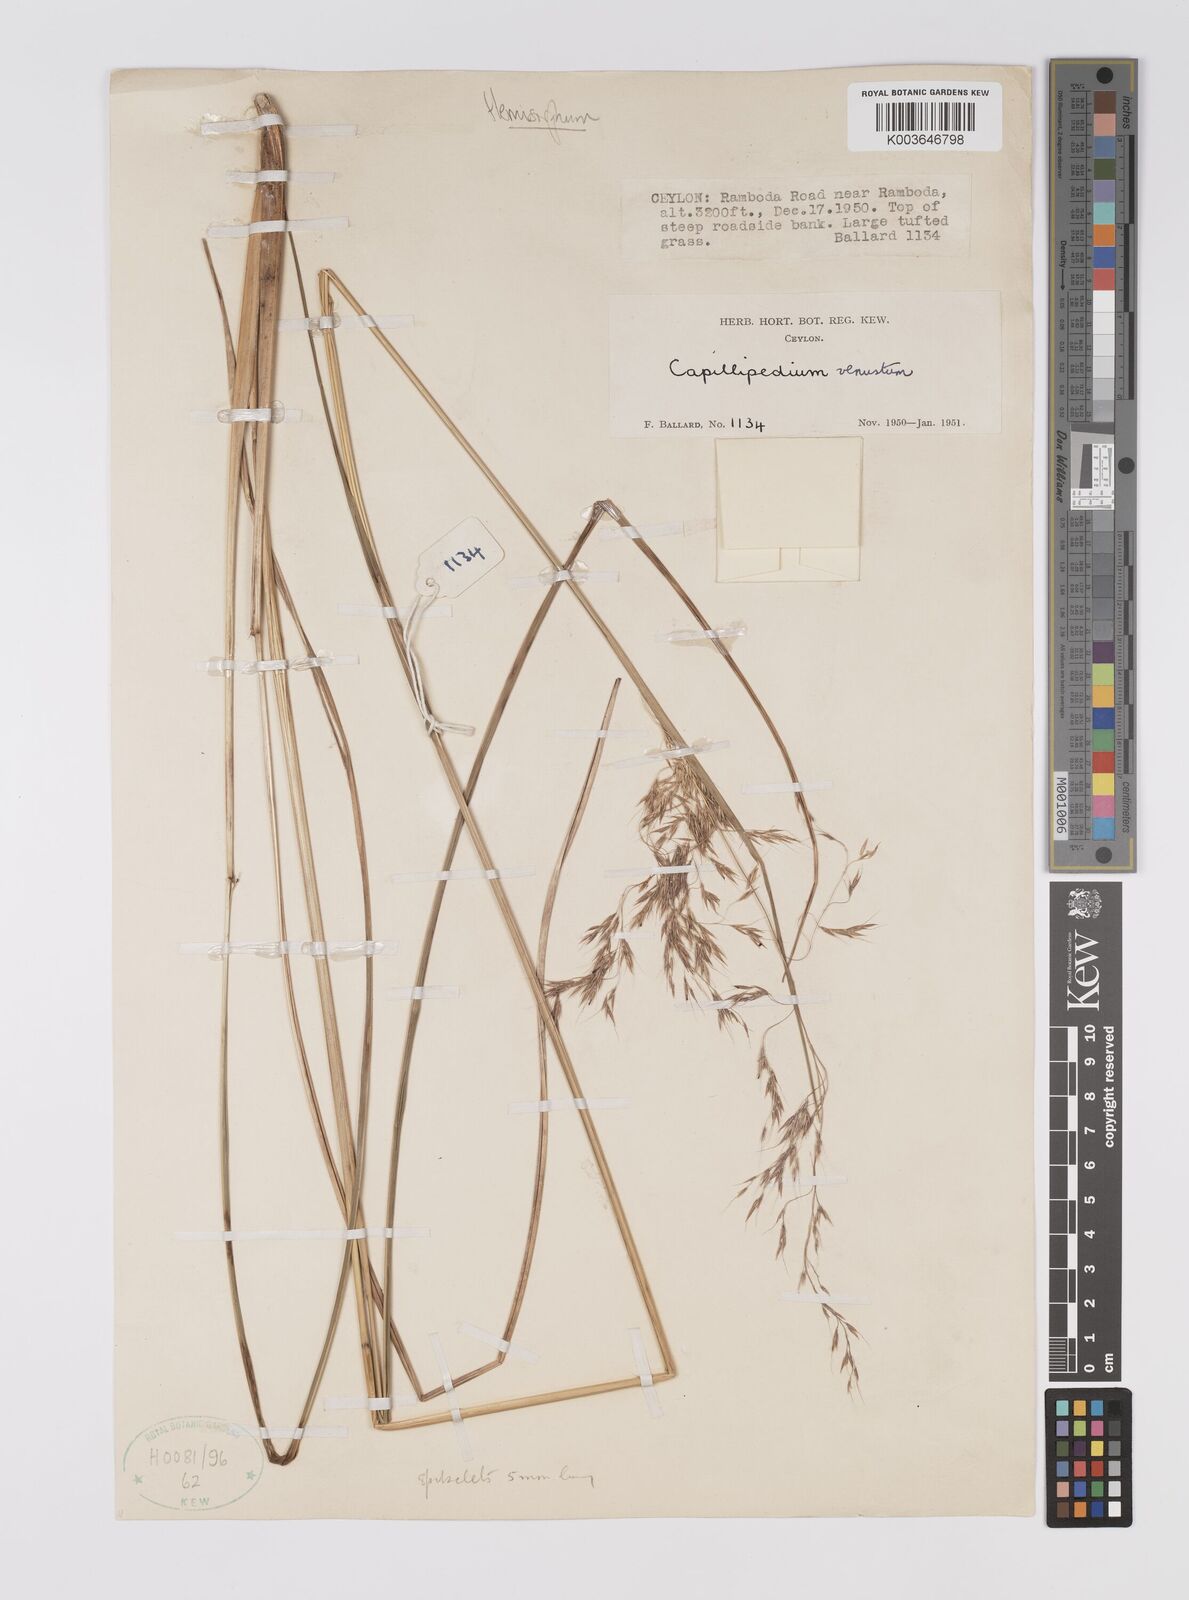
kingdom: Plantae
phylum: Tracheophyta
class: Liliopsida
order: Poales
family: Poaceae
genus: Hemisorghum
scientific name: Hemisorghum venustum
